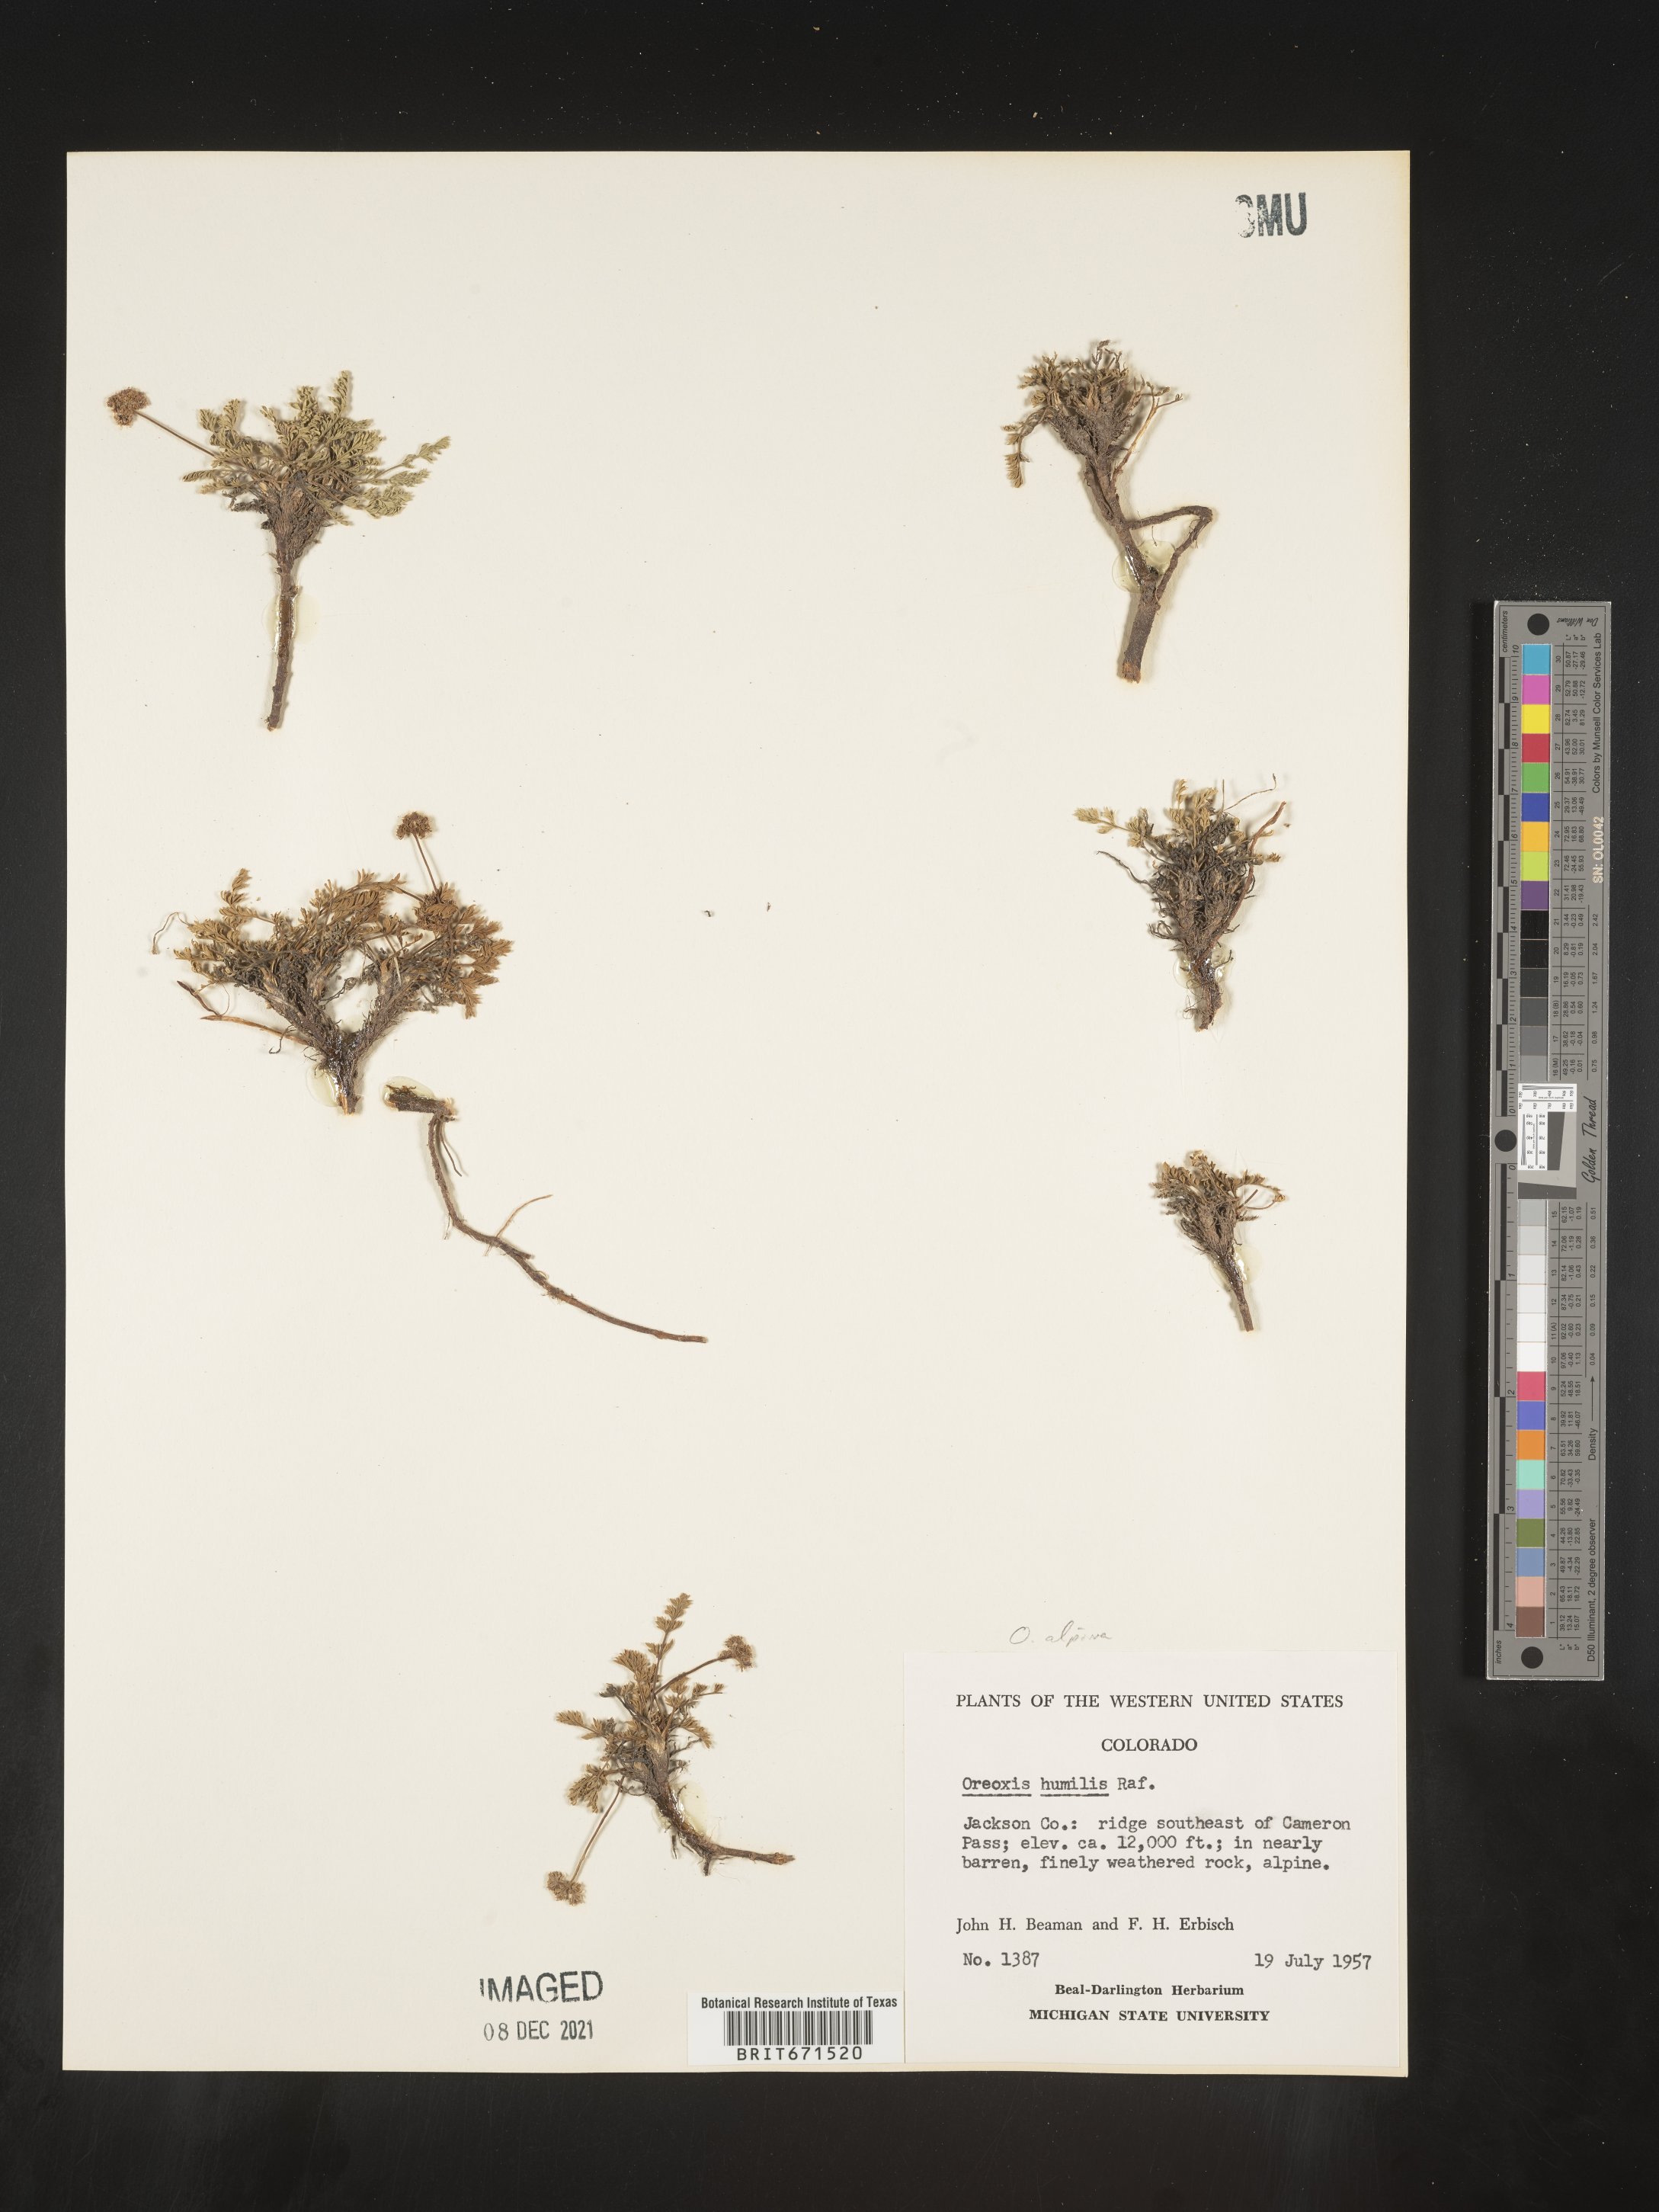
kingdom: Plantae
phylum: Tracheophyta
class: Magnoliopsida
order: Apiales
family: Apiaceae
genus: Oreoxis
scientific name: Oreoxis alpina
